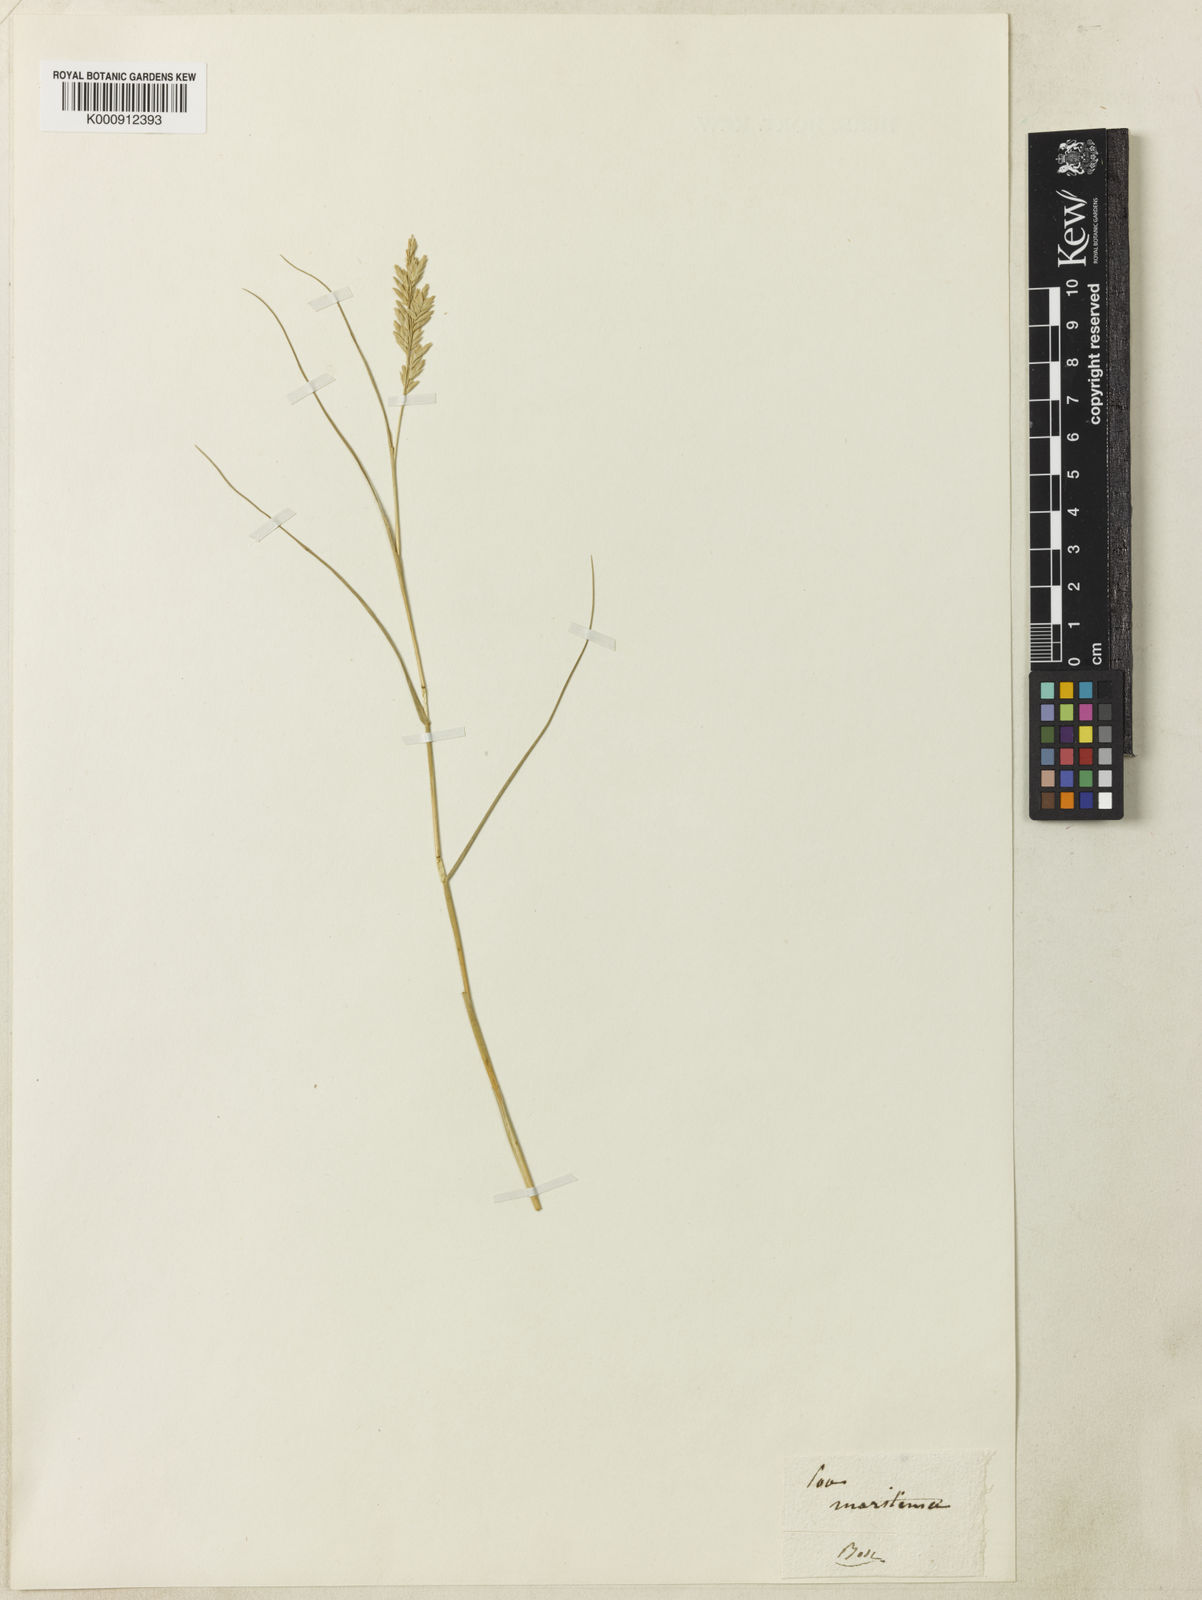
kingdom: Plantae
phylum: Tracheophyta
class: Liliopsida
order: Poales
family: Poaceae
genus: Distichlis
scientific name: Distichlis spicata
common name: Saltgrass
